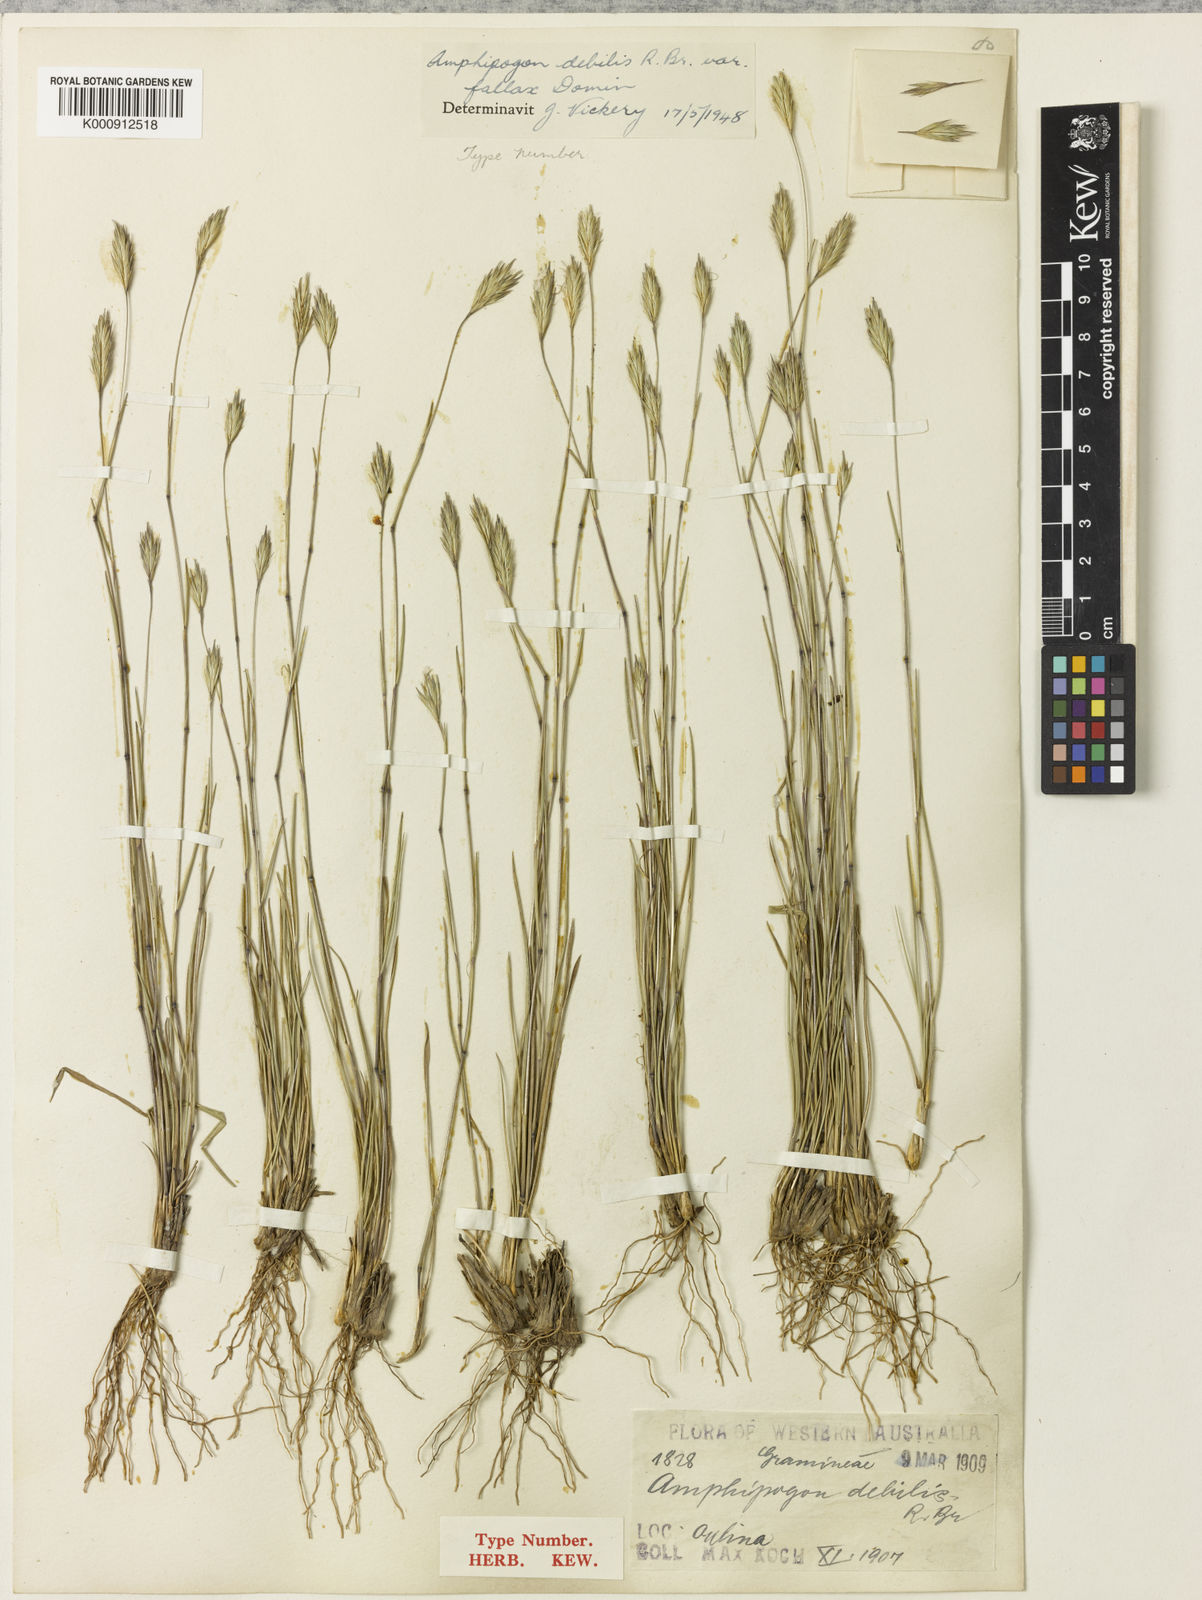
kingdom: Plantae
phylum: Tracheophyta
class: Liliopsida
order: Poales
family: Poaceae
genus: Amphipogon
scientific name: Amphipogon debilis
